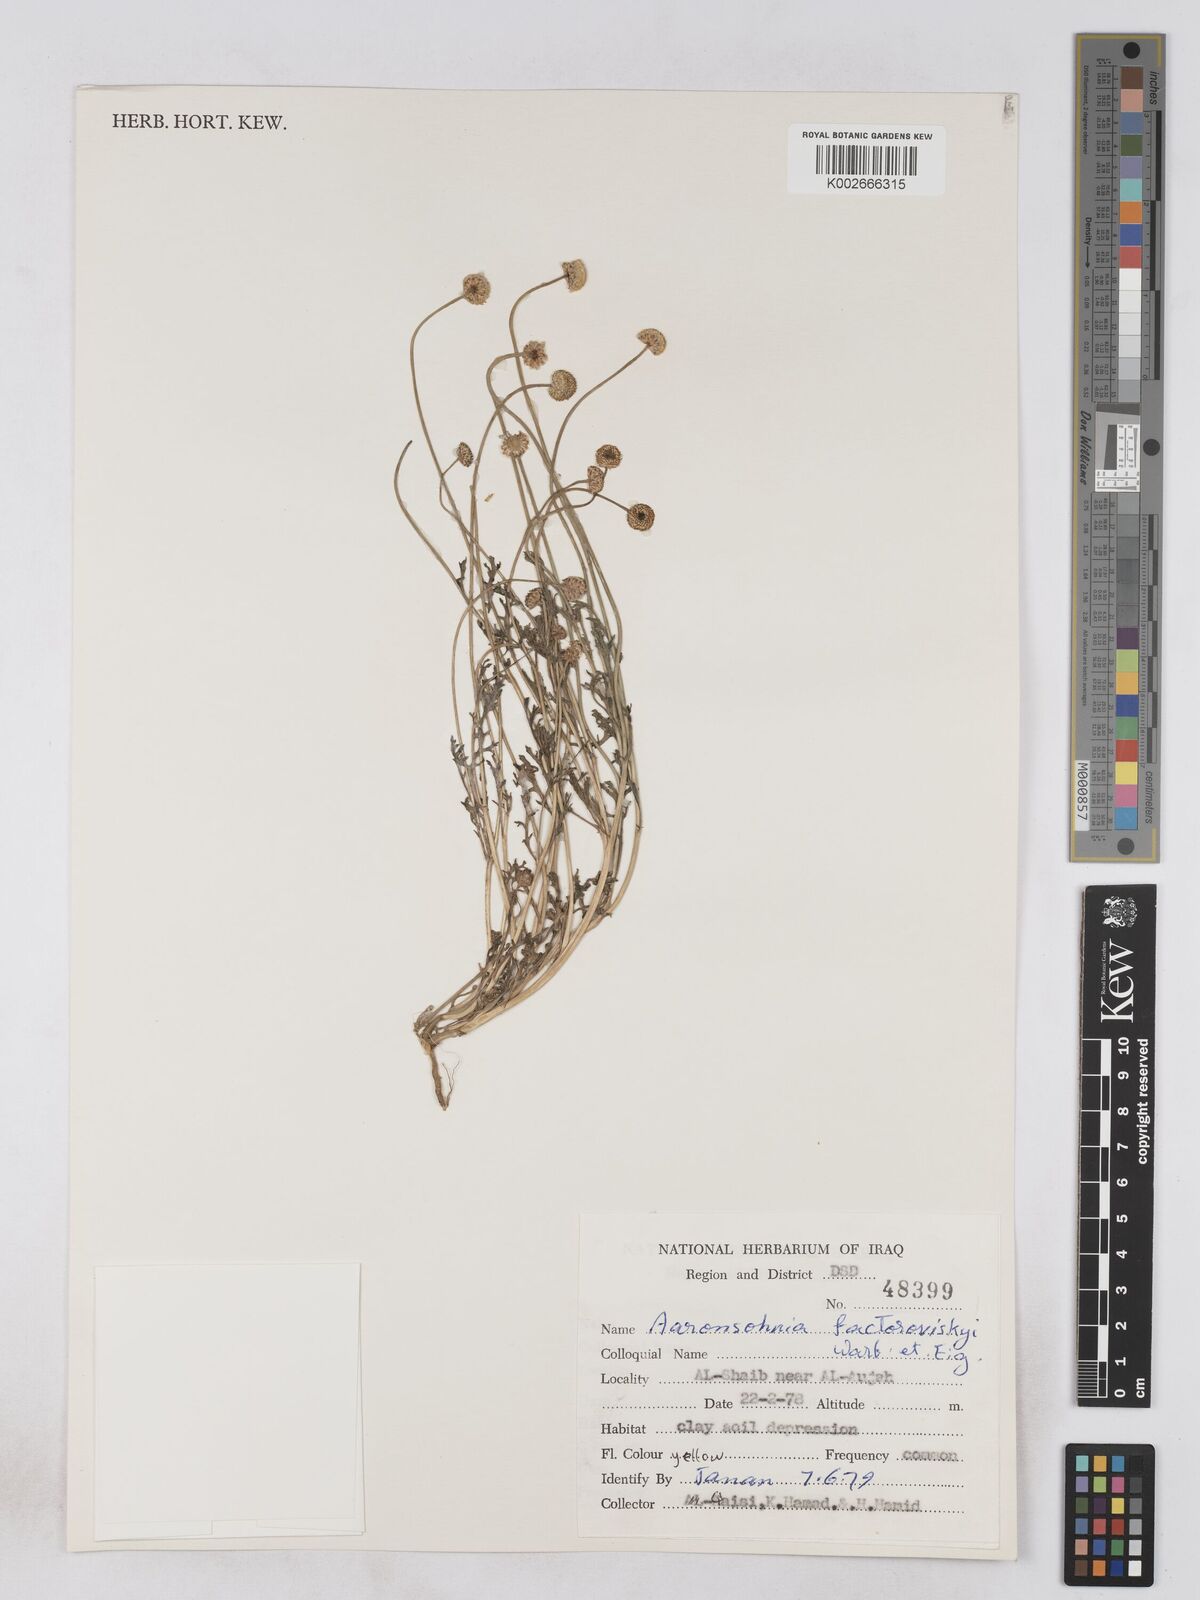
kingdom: Plantae
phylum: Tracheophyta
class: Magnoliopsida
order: Asterales
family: Asteraceae
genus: Otoglyphis
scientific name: Otoglyphis factorovskyi
